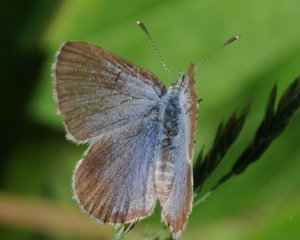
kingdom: Animalia
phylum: Arthropoda
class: Insecta
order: Lepidoptera
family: Lycaenidae
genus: Glaucopsyche
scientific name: Glaucopsyche lygdamus
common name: Silvery Blue
